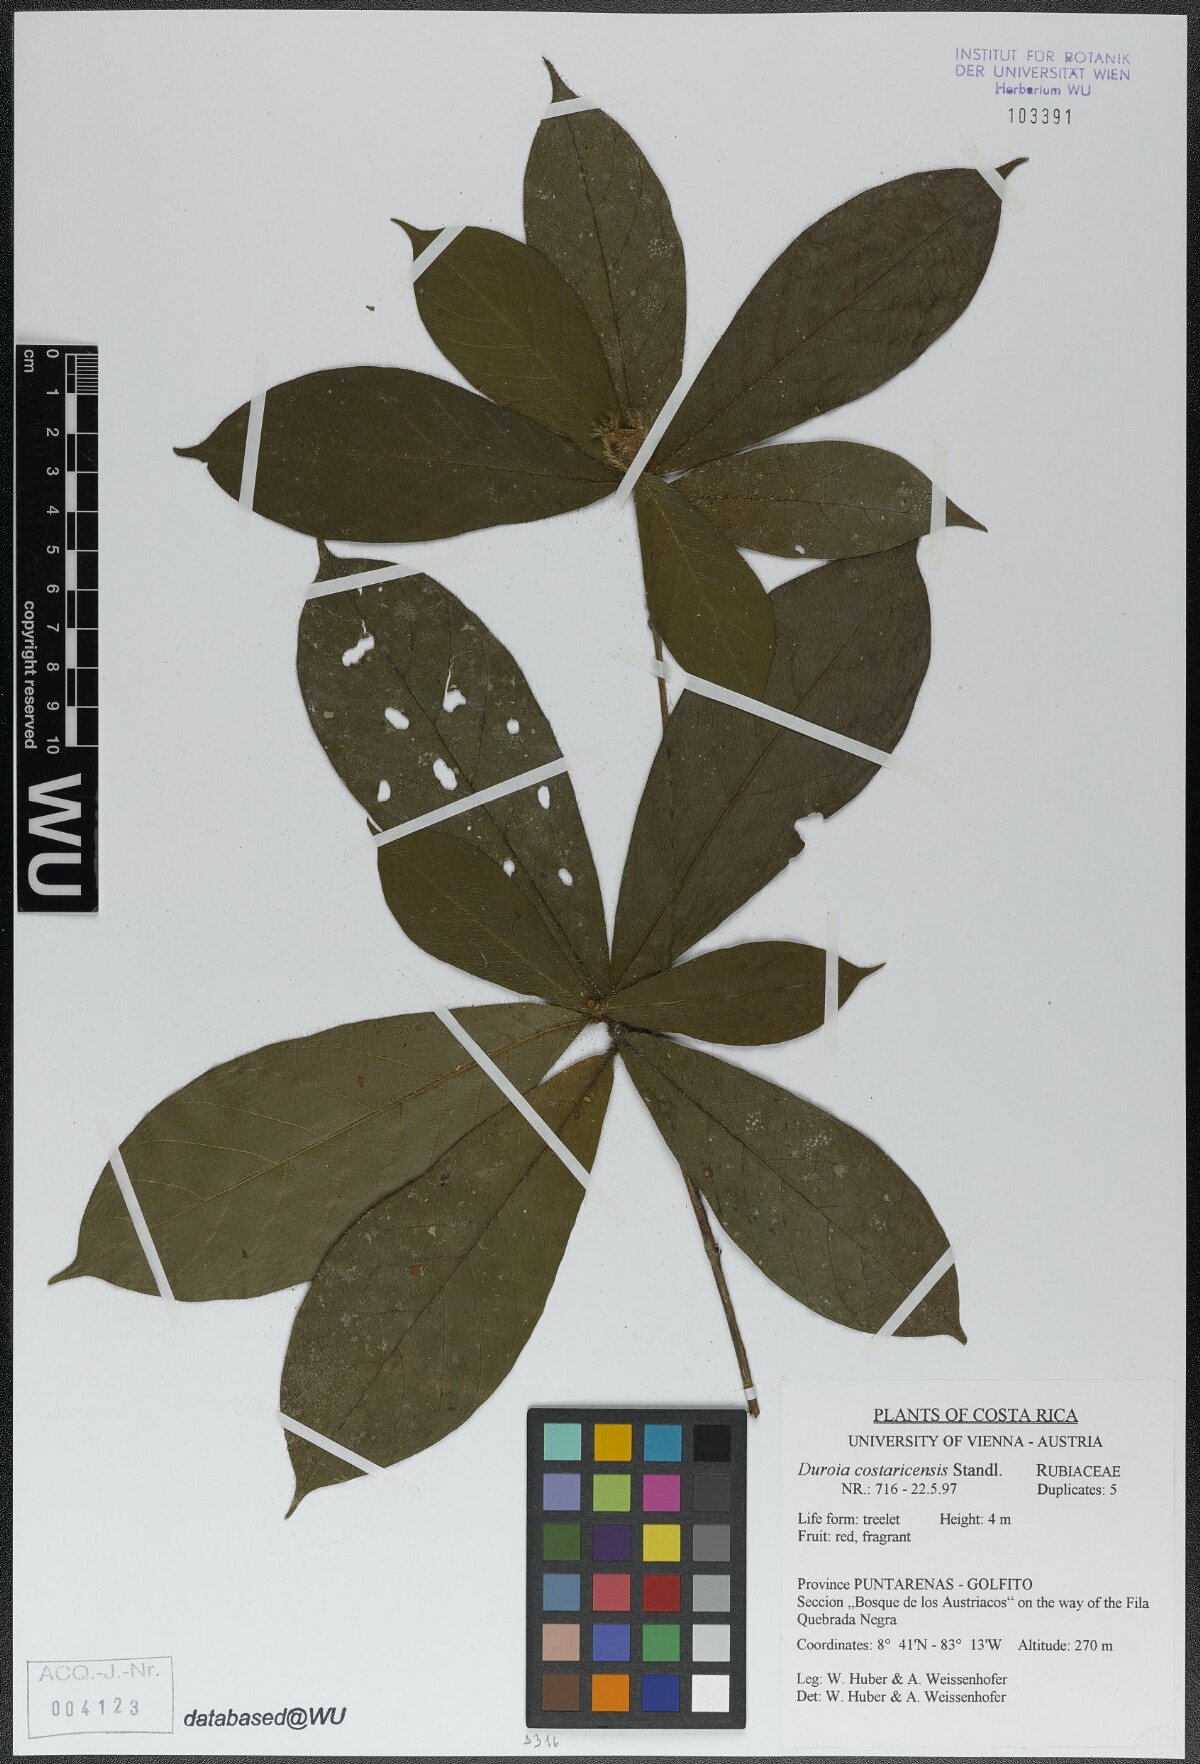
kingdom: Plantae
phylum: Tracheophyta
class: Magnoliopsida
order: Gentianales
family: Rubiaceae
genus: Duroia
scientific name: Duroia costaricensis
